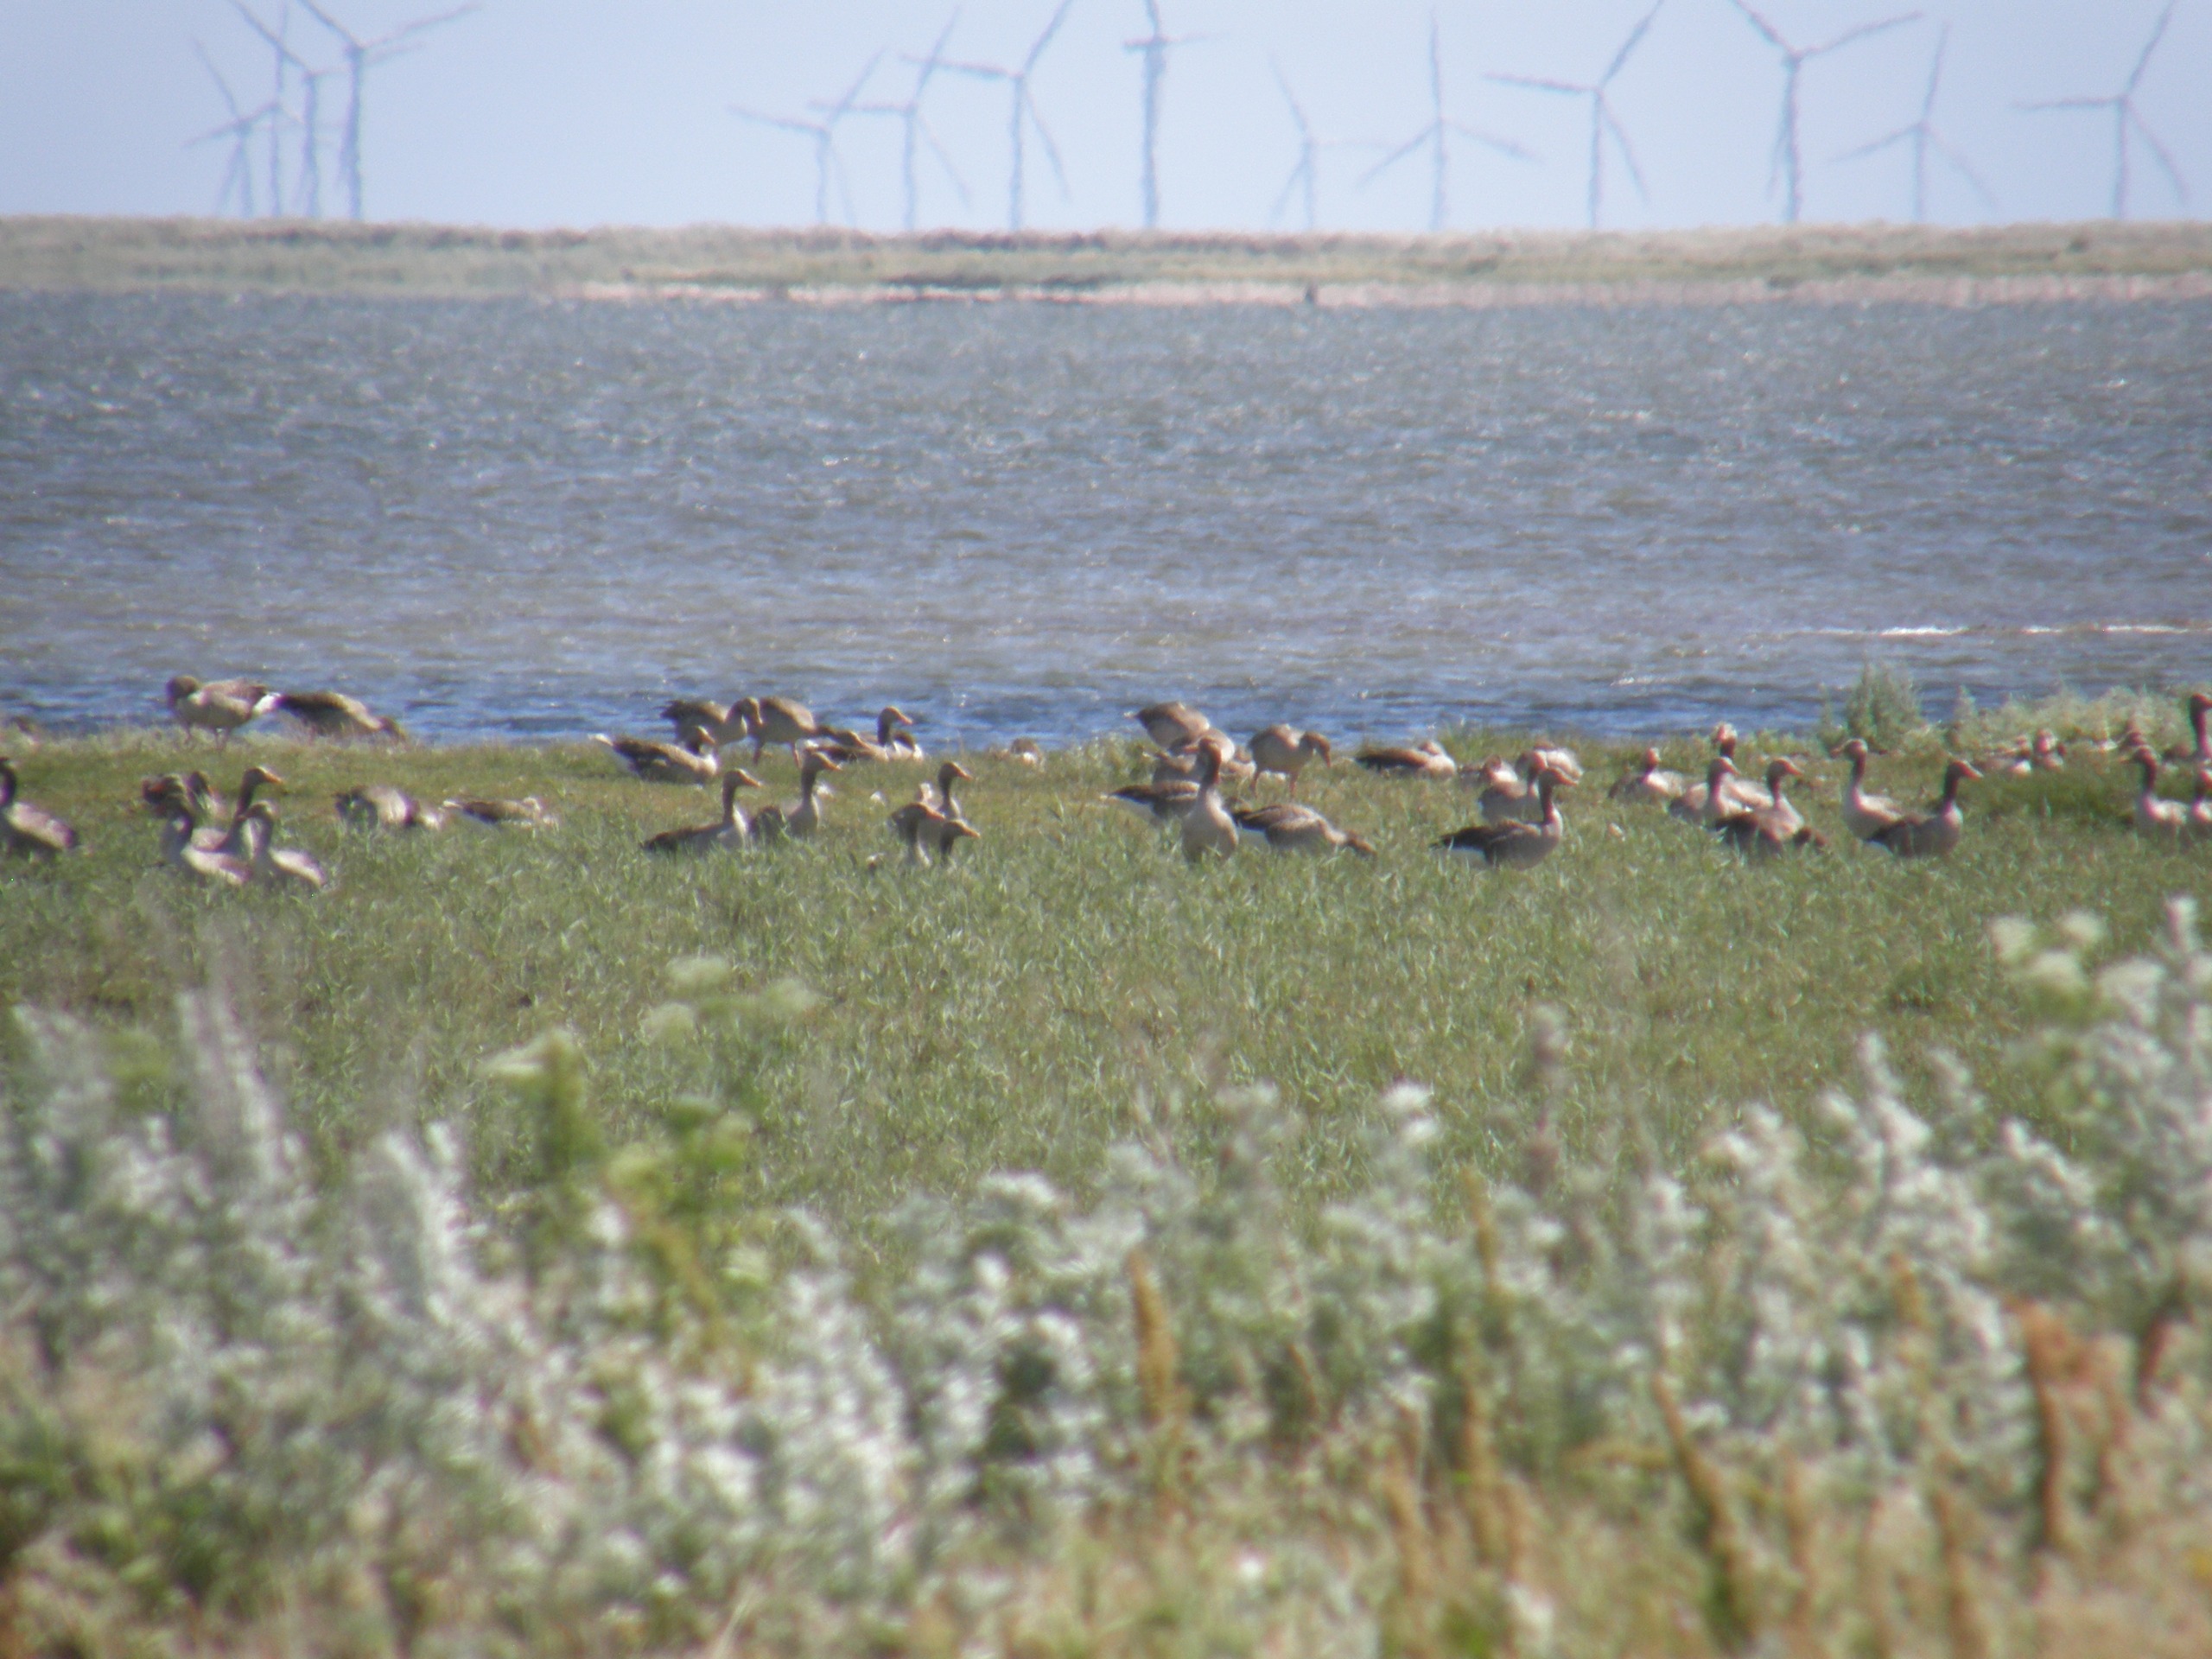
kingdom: Animalia
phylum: Chordata
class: Aves
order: Anseriformes
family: Anatidae
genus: Anser
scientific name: Anser anser
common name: Grågås
